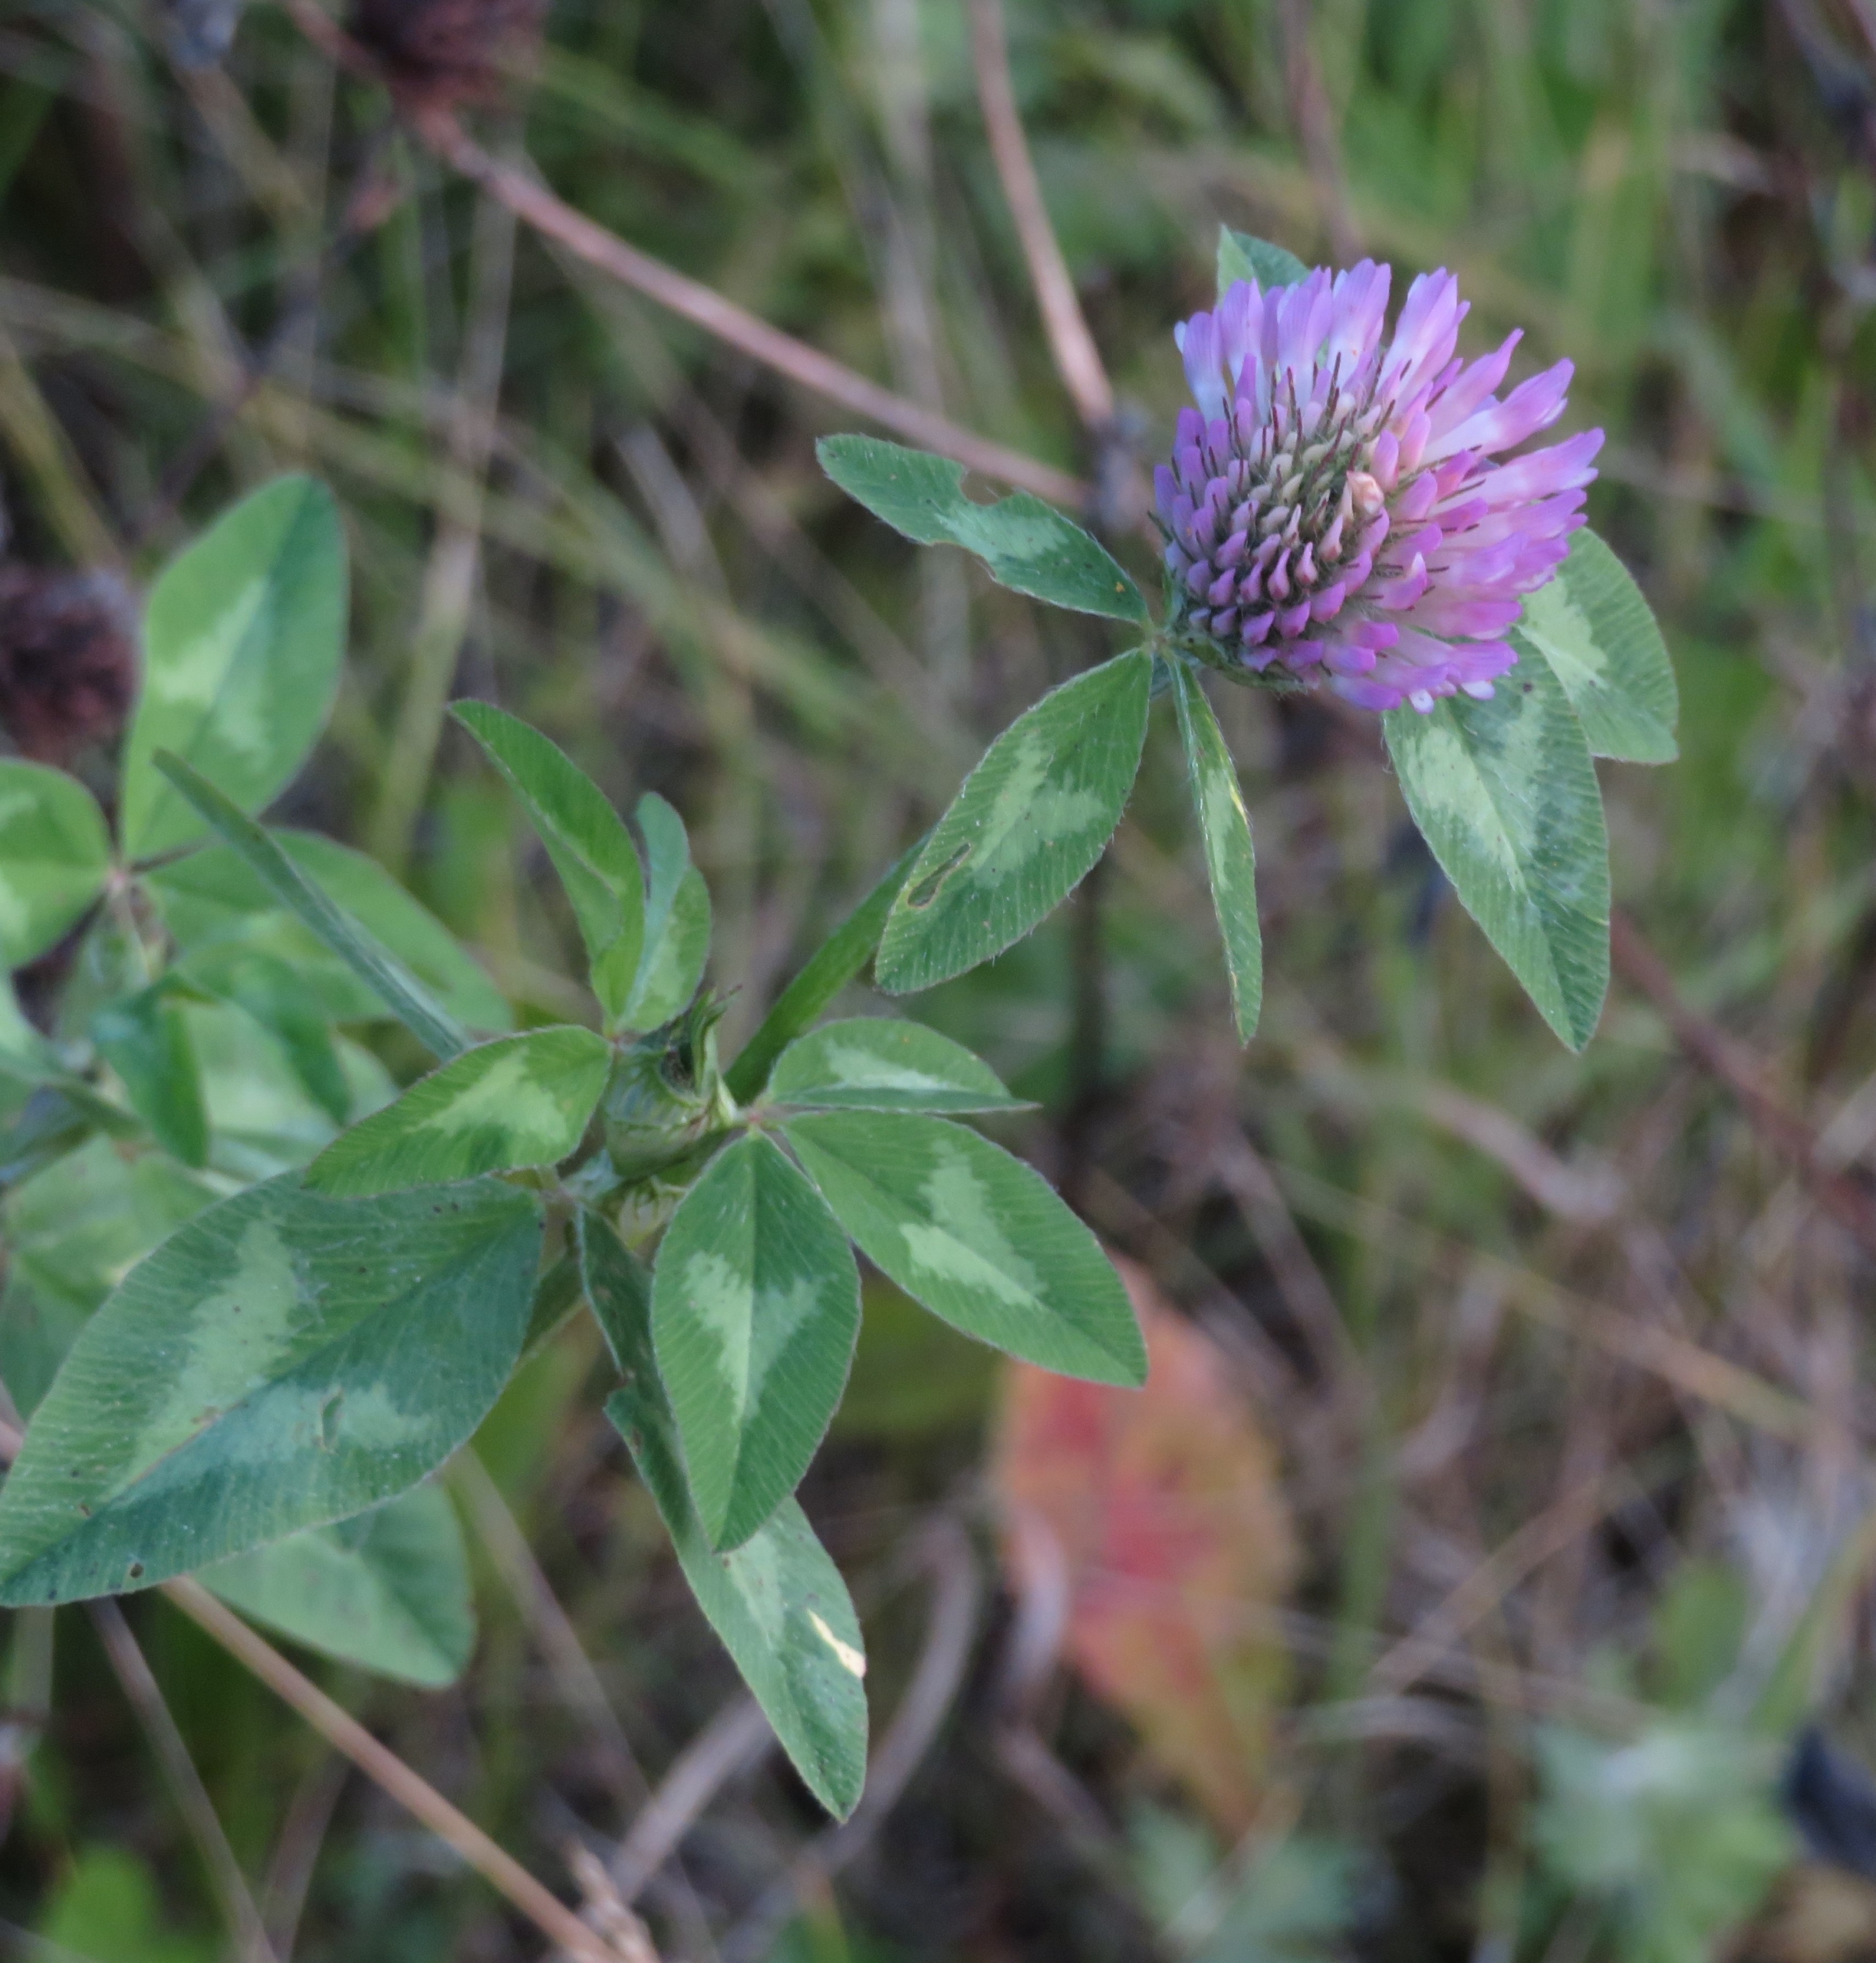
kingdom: Plantae
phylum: Tracheophyta
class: Magnoliopsida
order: Fabales
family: Fabaceae
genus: Trifolium
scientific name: Trifolium pratense
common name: Rød-kløver
